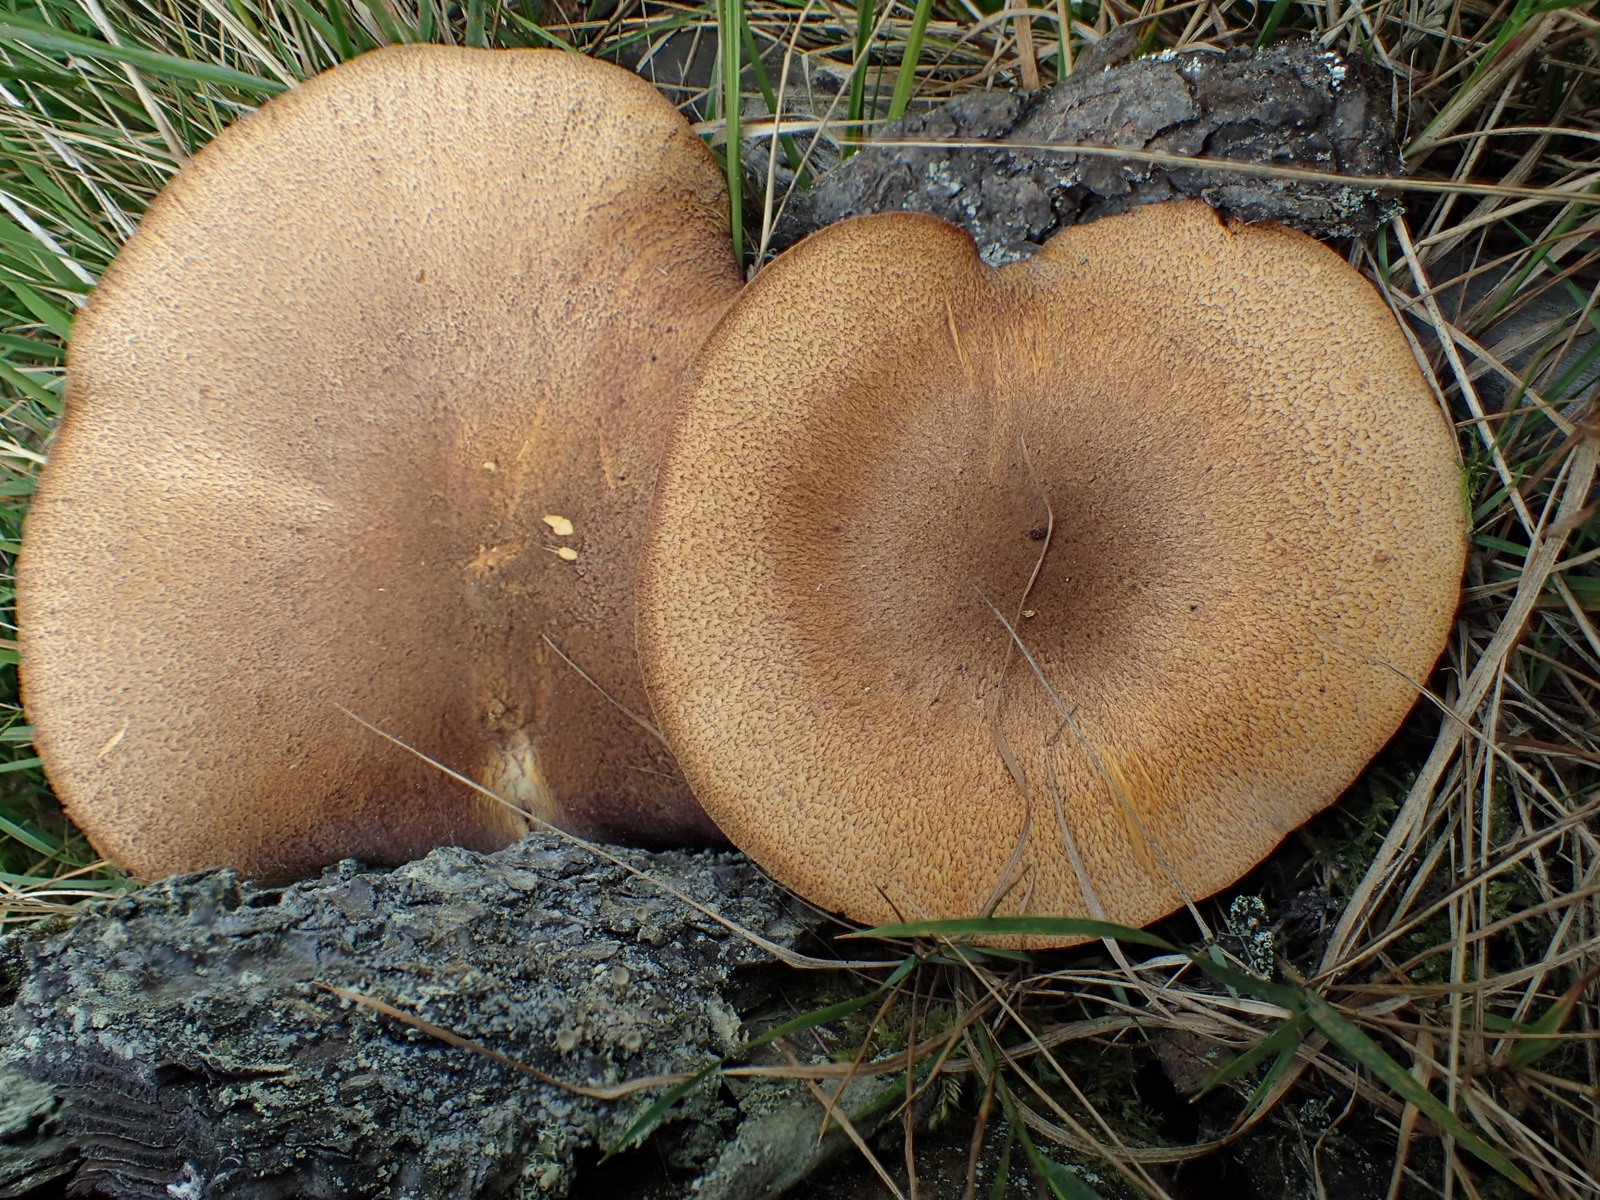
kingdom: Fungi
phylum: Basidiomycota
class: Agaricomycetes
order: Agaricales
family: Tricholomataceae
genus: Tricholomopsis
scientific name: Tricholomopsis rutilans
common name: purpur-væbnerhat
